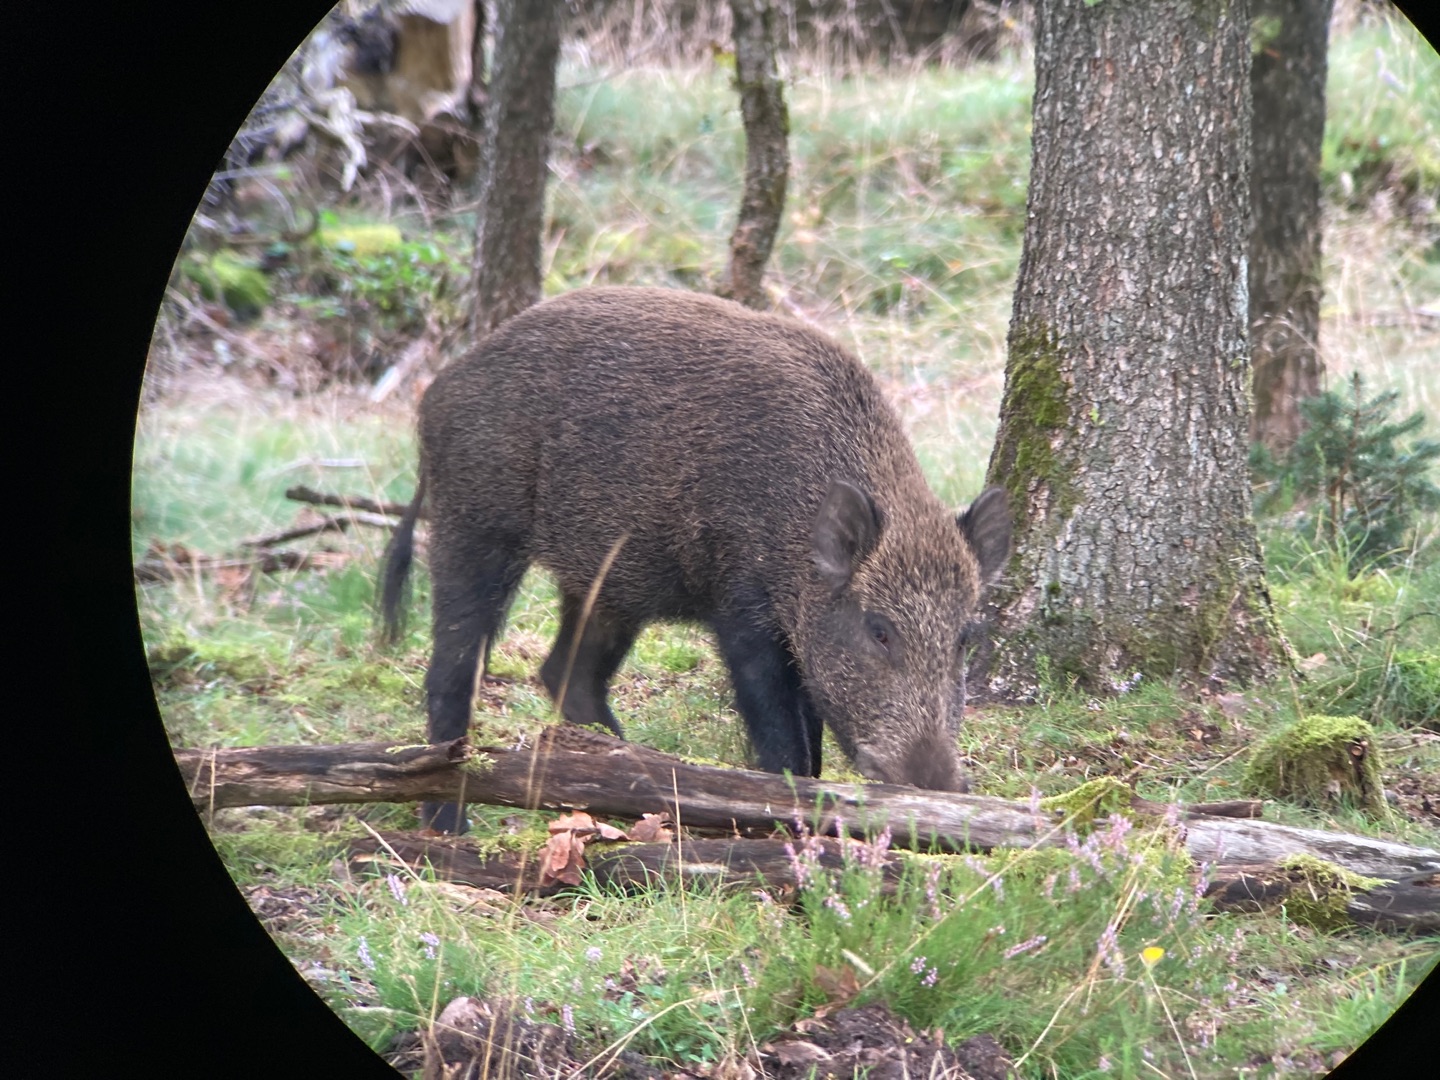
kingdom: Animalia
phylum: Chordata
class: Mammalia
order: Artiodactyla
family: Suidae
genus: Sus
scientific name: Sus scrofa
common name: Vildsvin
